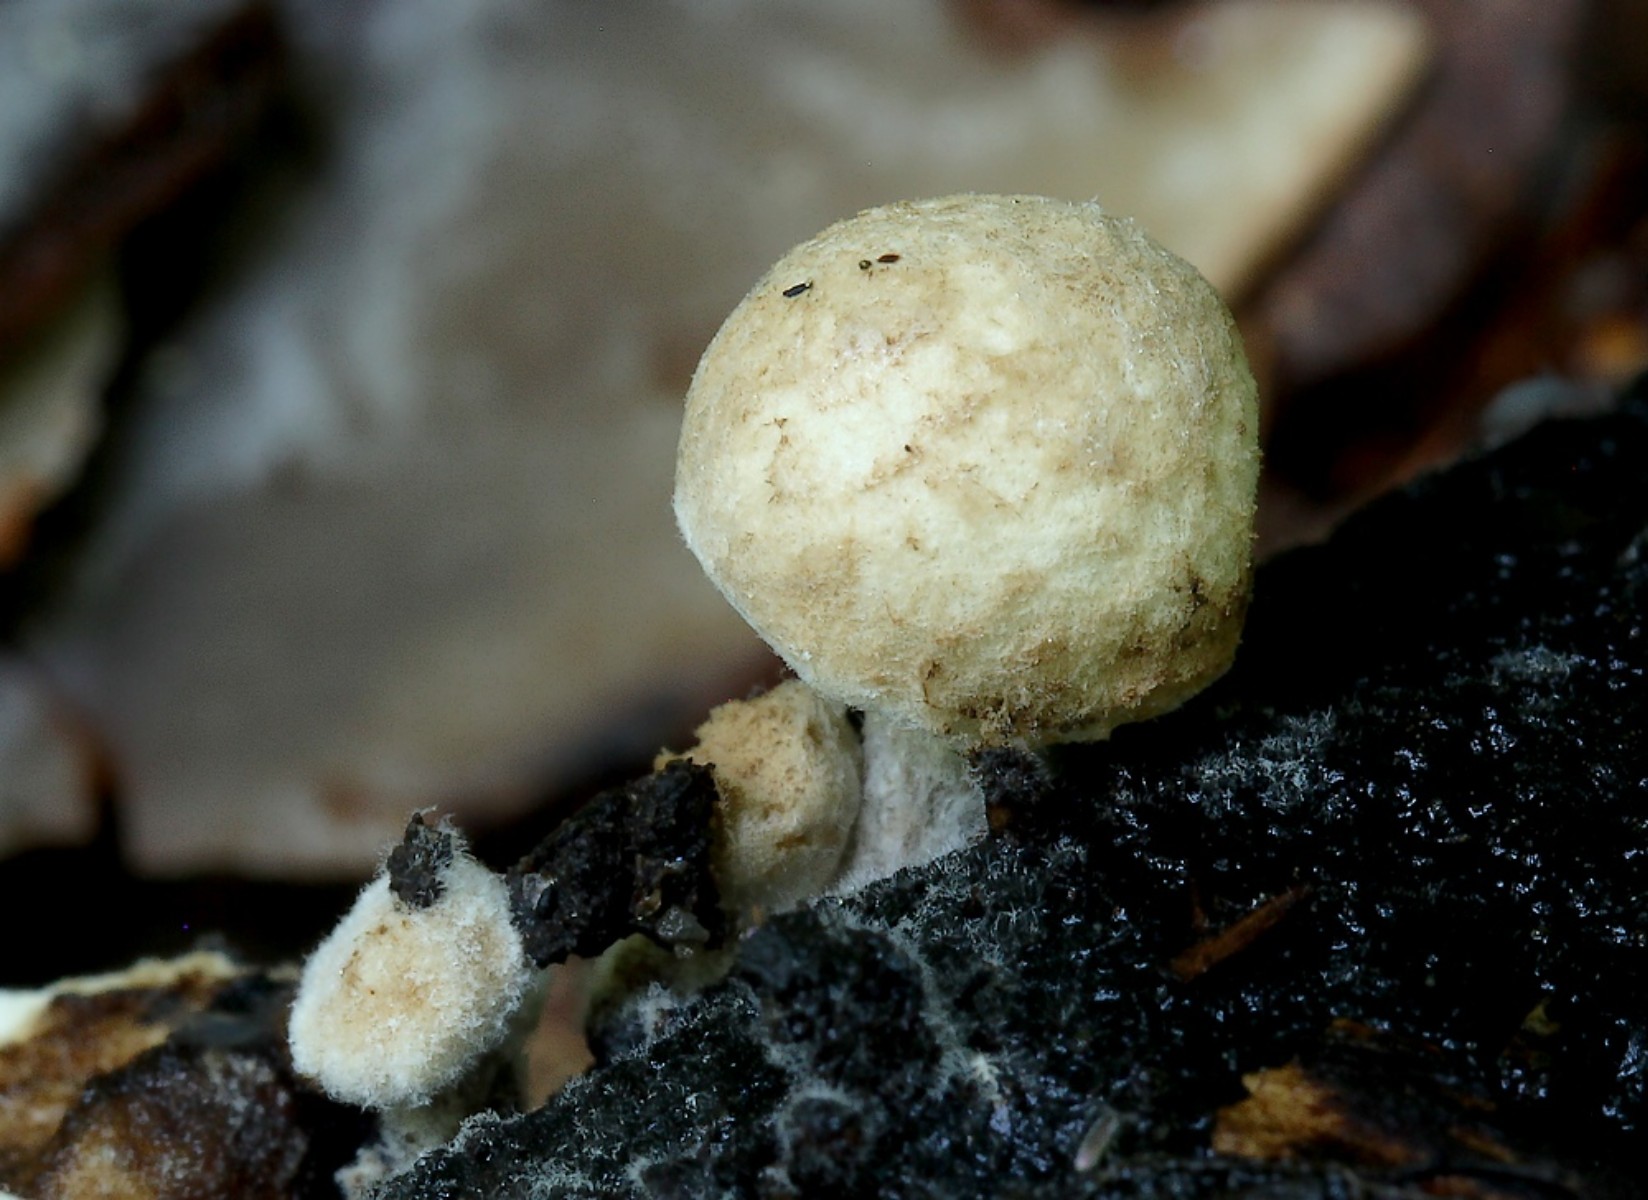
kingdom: Fungi
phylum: Basidiomycota
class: Agaricomycetes
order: Agaricales
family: Lyophyllaceae
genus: Asterophora
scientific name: Asterophora lycoperdoides
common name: brunpudret snyltehat
